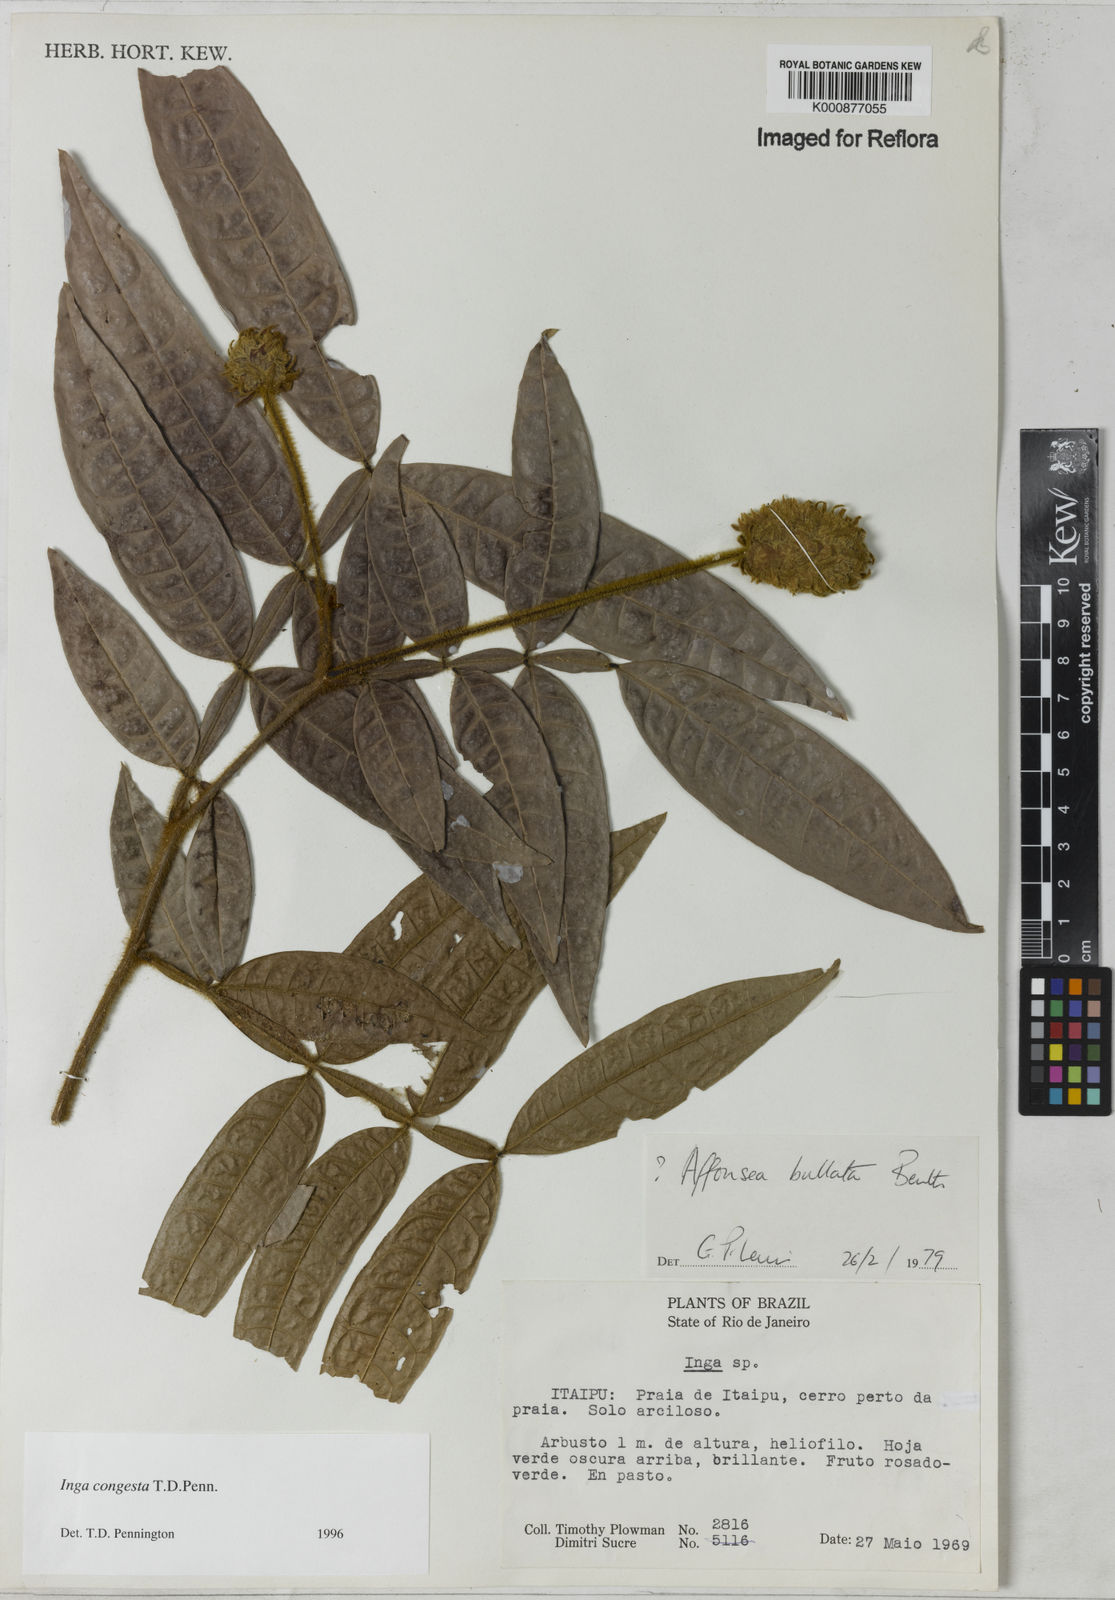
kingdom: Plantae
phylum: Tracheophyta
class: Magnoliopsida
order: Fabales
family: Fabaceae
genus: Inga
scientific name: Inga congesta
